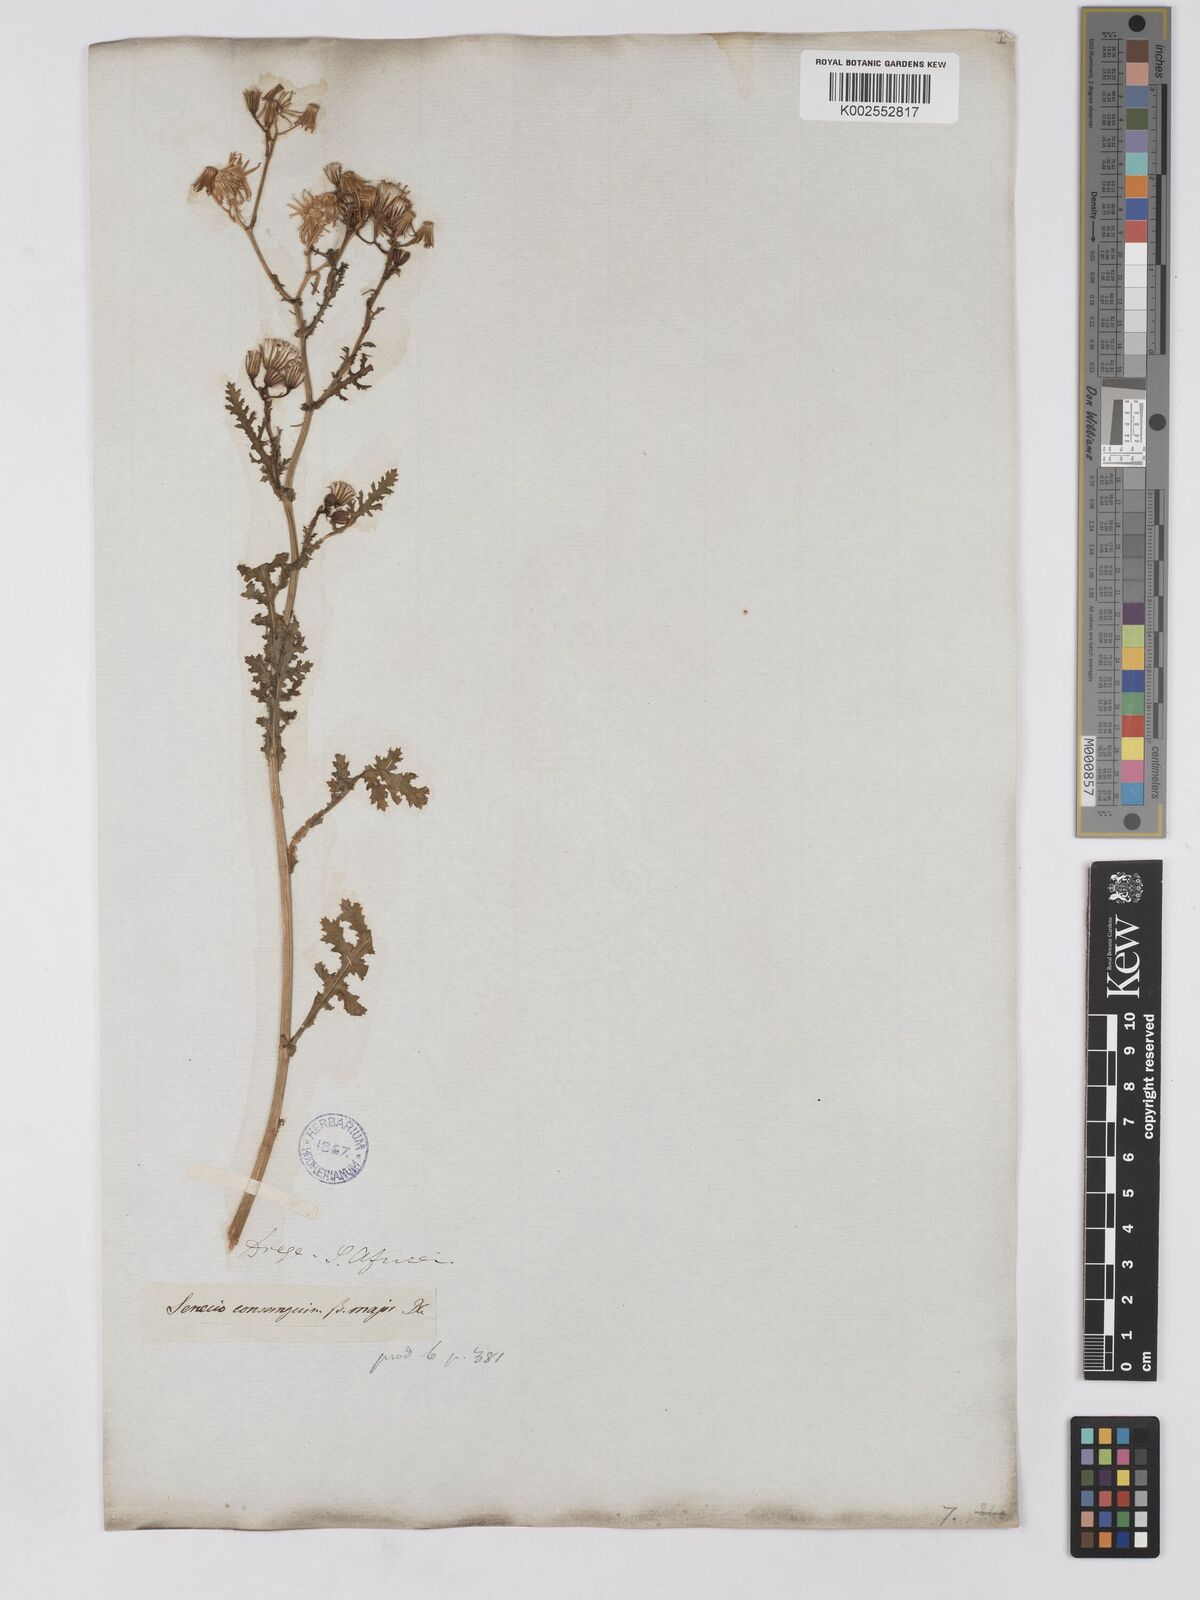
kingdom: Plantae
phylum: Tracheophyta
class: Magnoliopsida
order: Asterales
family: Asteraceae
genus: Senecio
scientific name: Senecio consanguineus
